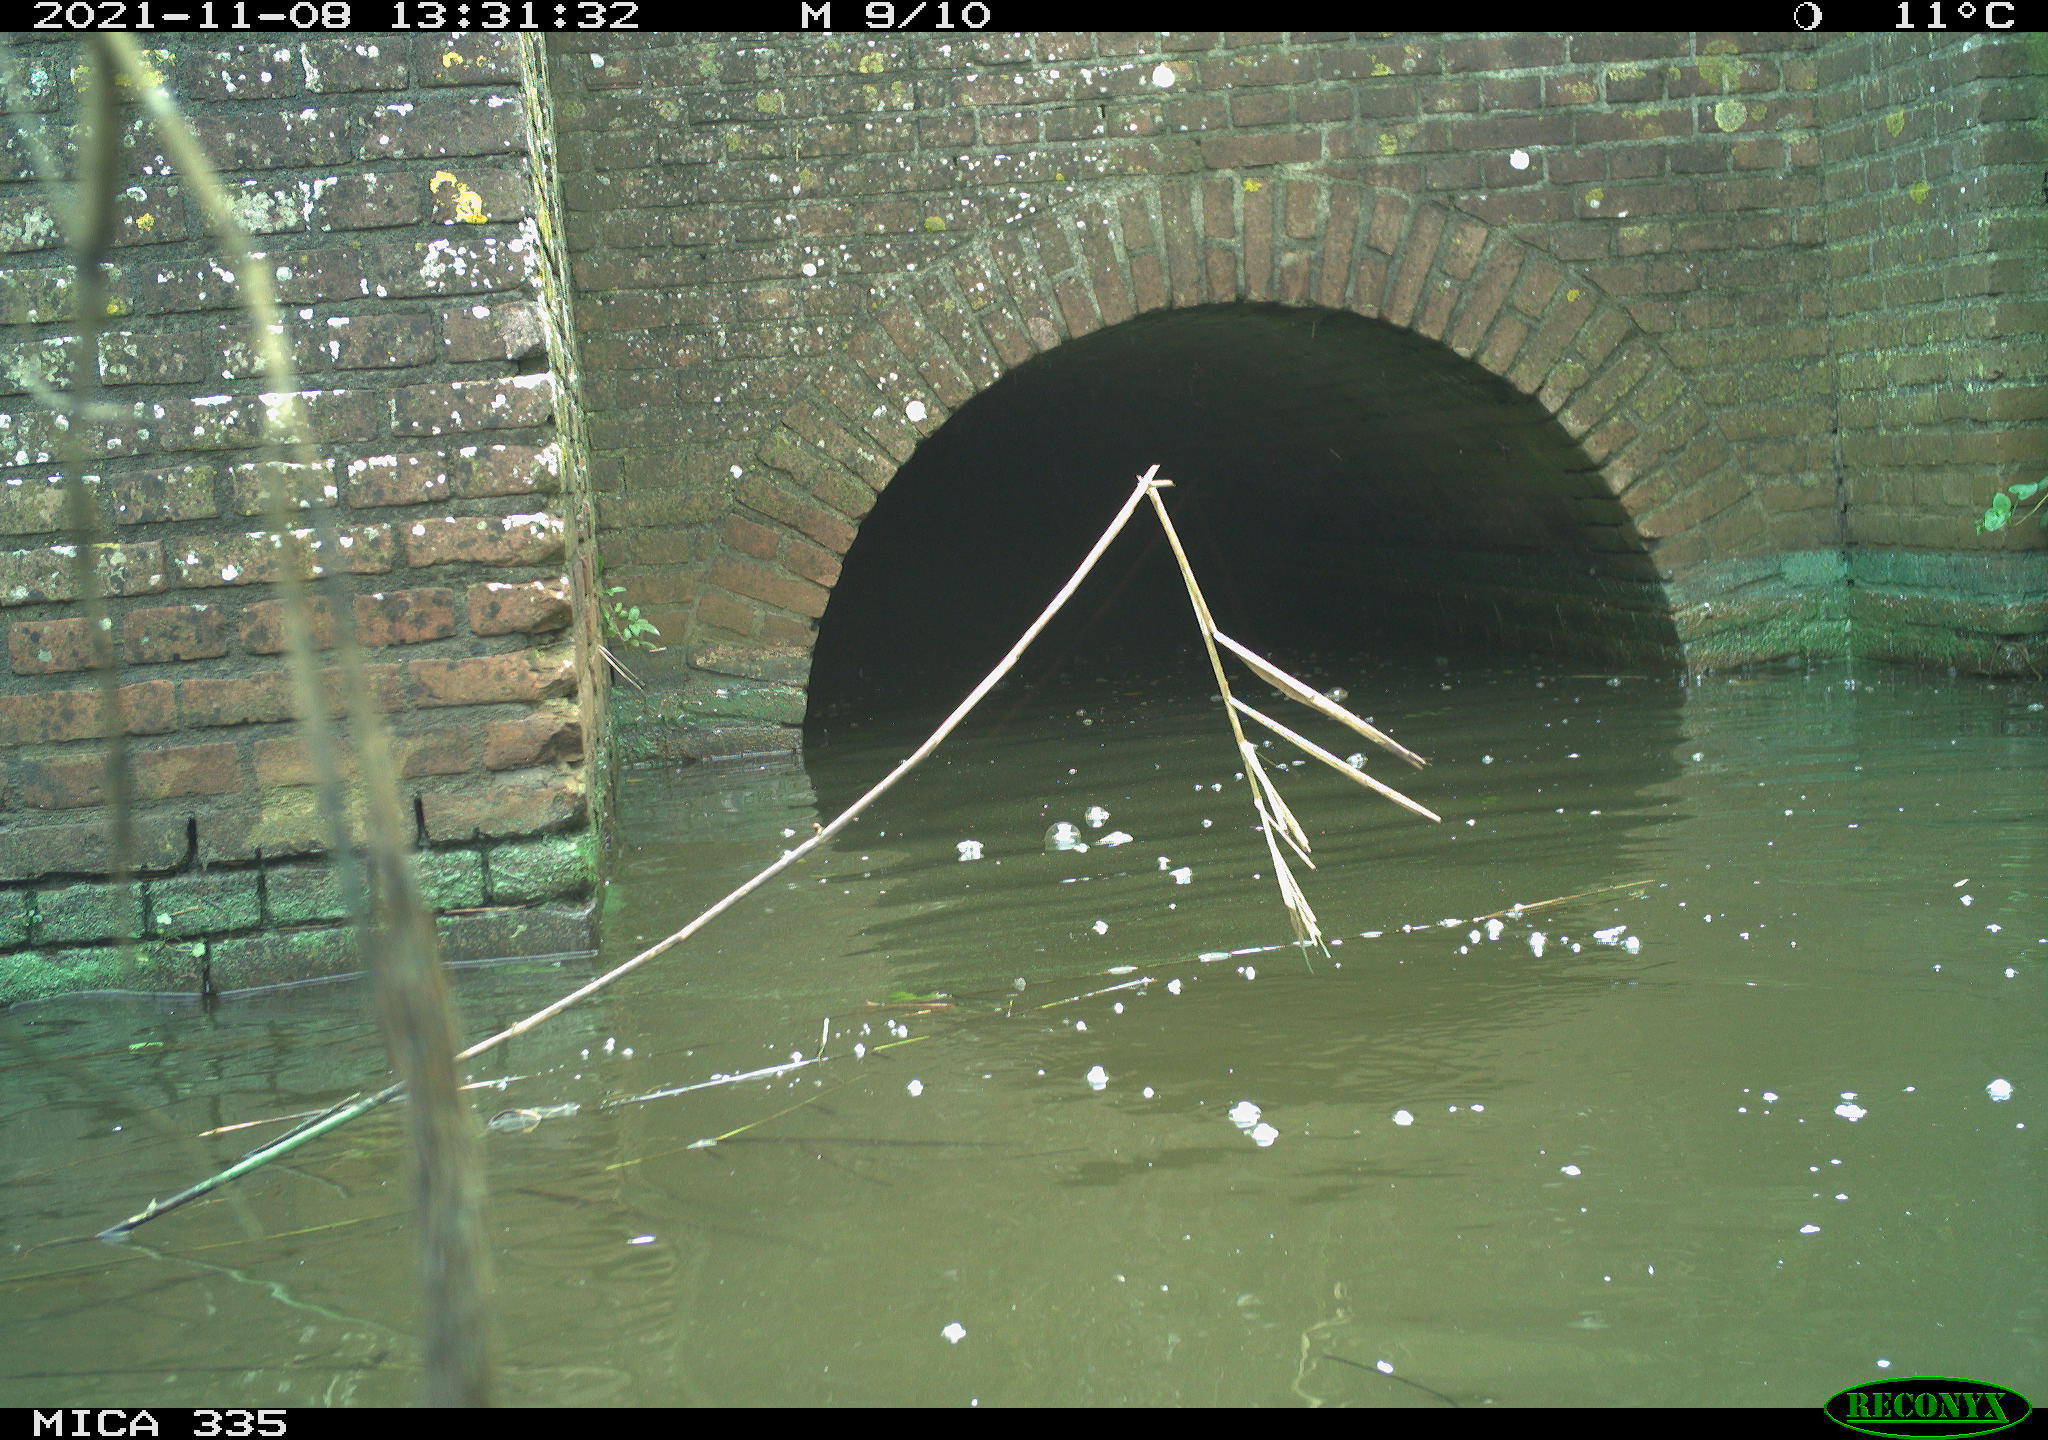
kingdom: Animalia
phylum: Chordata
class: Aves
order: Suliformes
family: Phalacrocoracidae
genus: Phalacrocorax
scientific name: Phalacrocorax carbo
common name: Great cormorant
